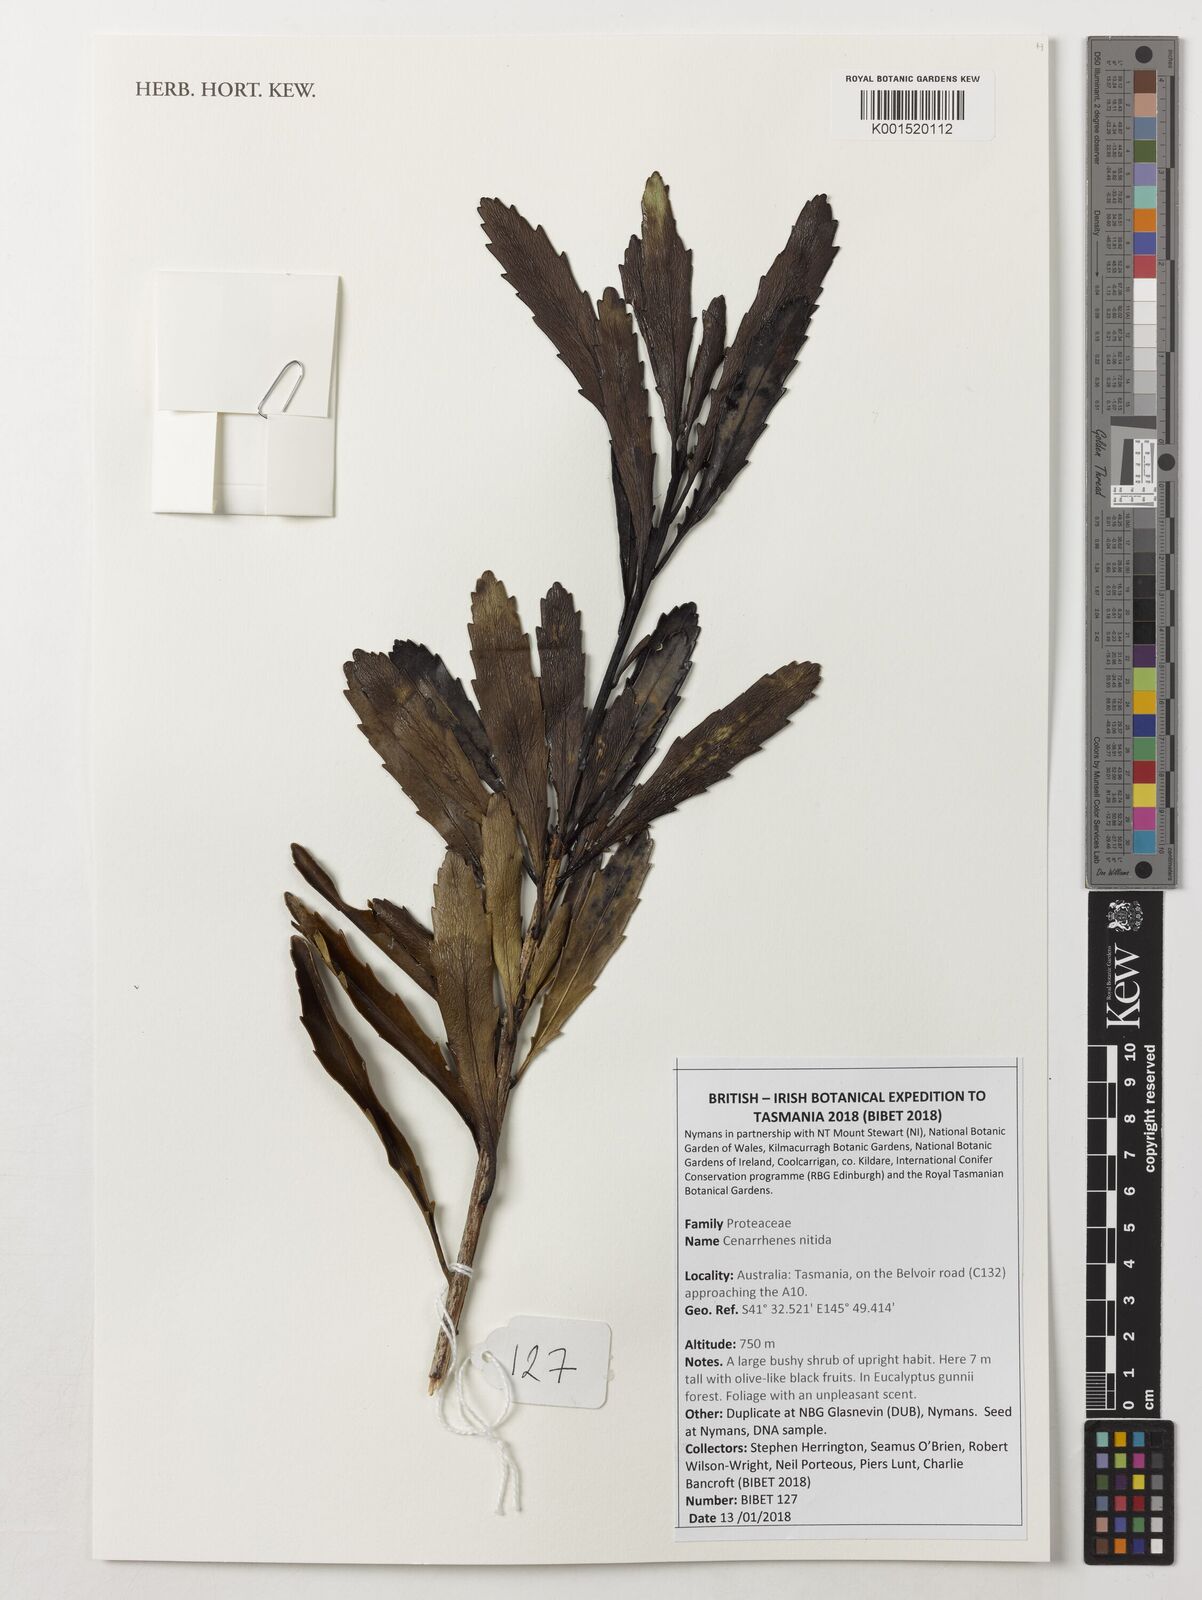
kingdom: Plantae
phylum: Tracheophyta
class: Magnoliopsida
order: Proteales
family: Proteaceae
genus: Cenarrhenes
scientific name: Cenarrhenes nitida
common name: Native plum
